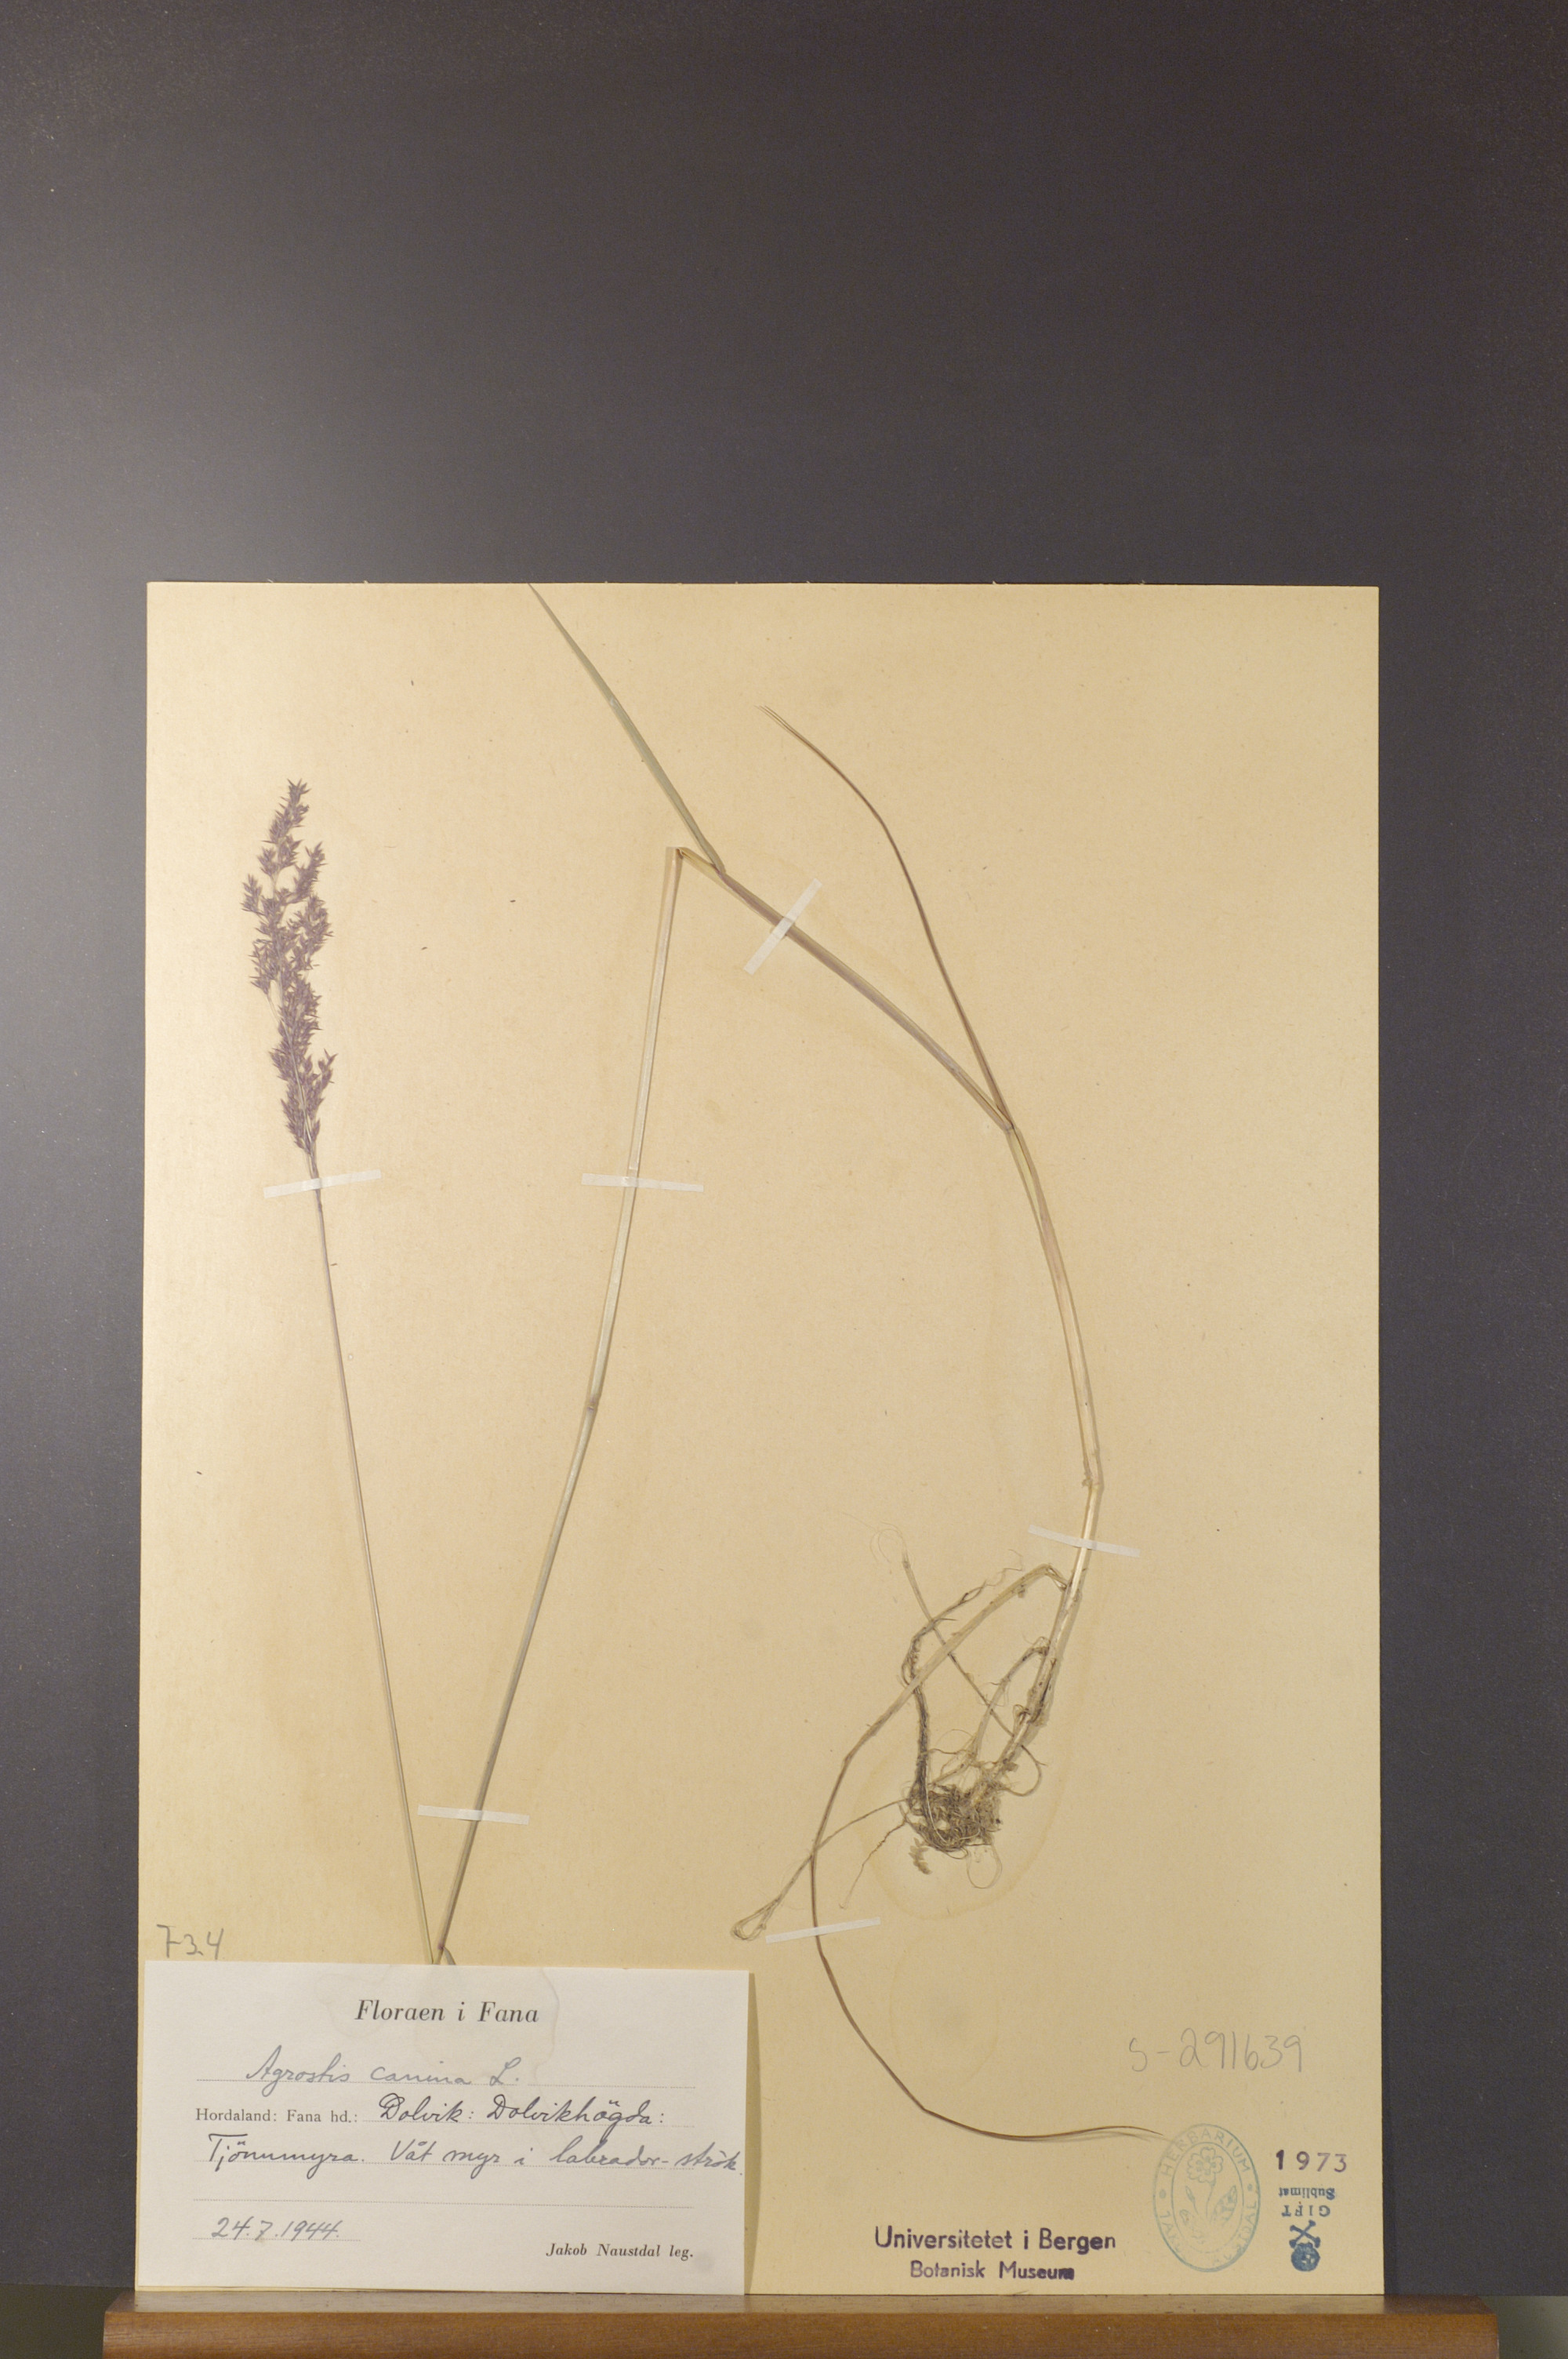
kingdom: Plantae
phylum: Tracheophyta
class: Liliopsida
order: Poales
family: Poaceae
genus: Agrostis
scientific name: Agrostis canina
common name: Velvet bent
